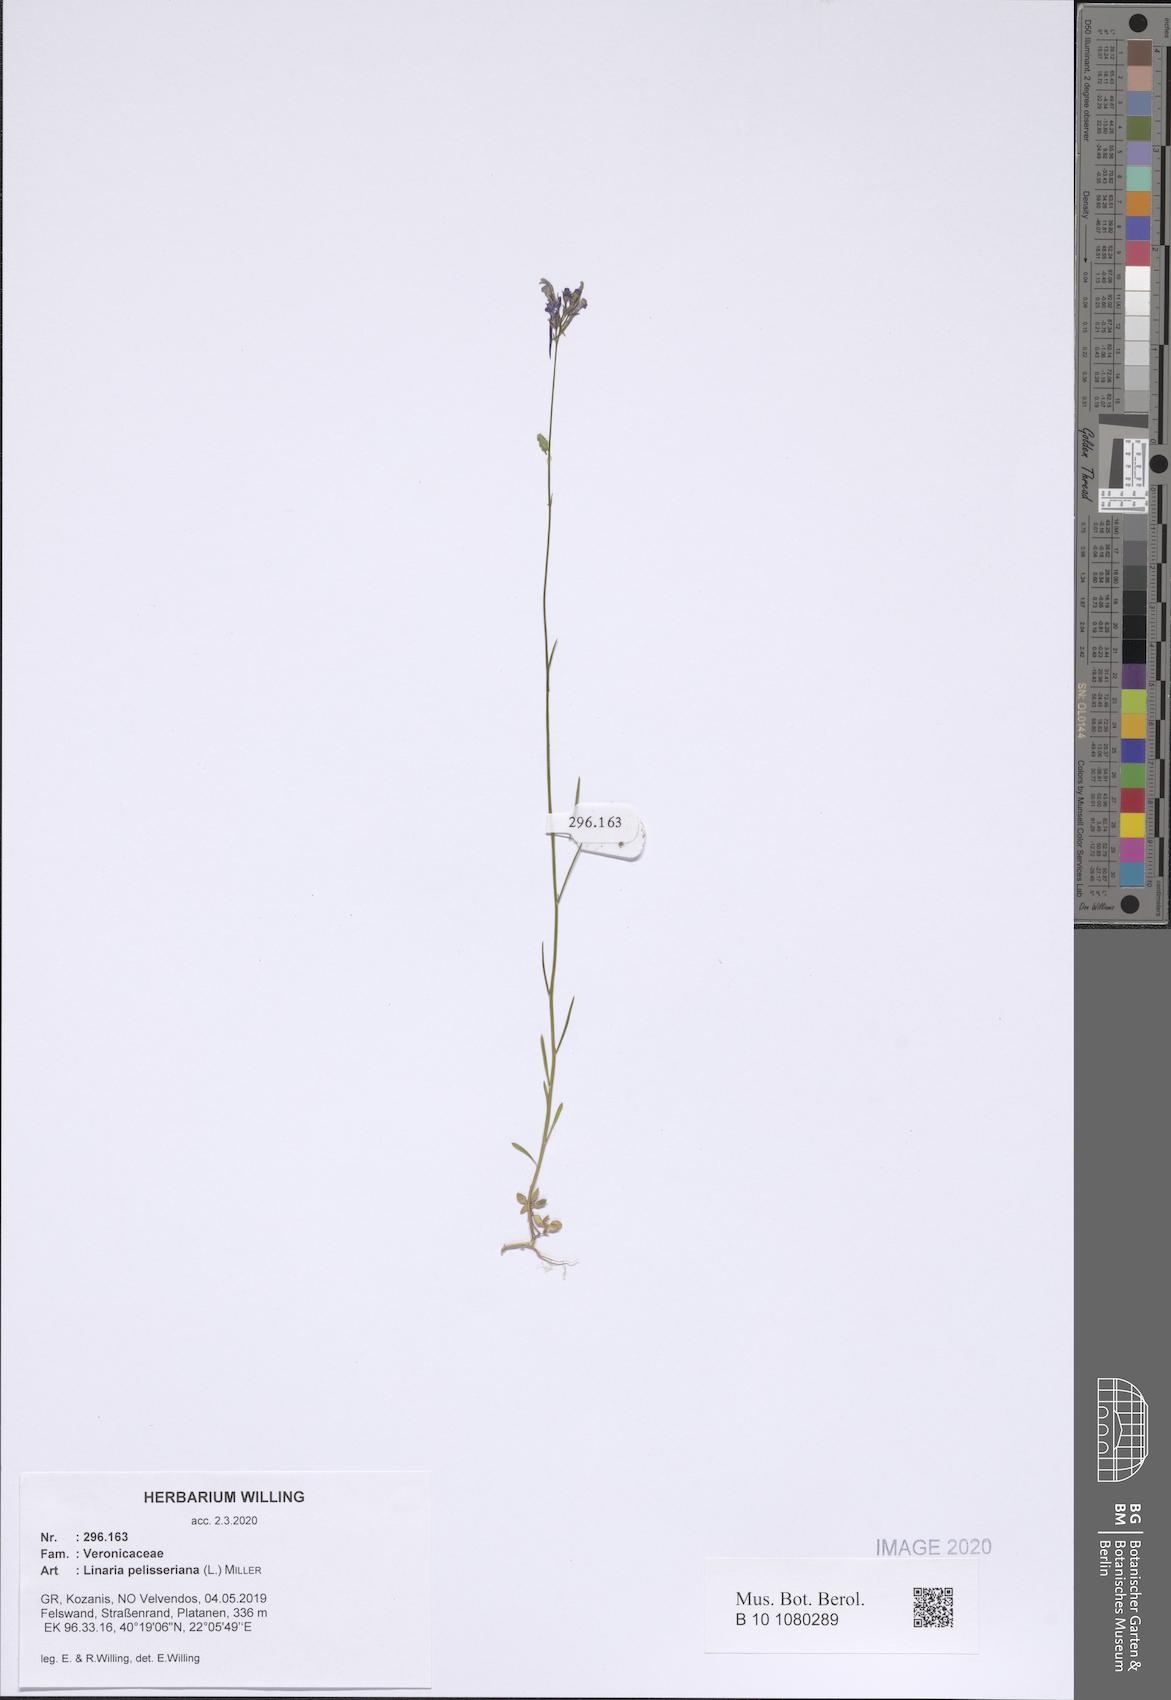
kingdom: Plantae
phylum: Tracheophyta
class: Magnoliopsida
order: Lamiales
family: Plantaginaceae
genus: Linaria
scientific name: Linaria pelisseriana
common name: Jersey toadflax
